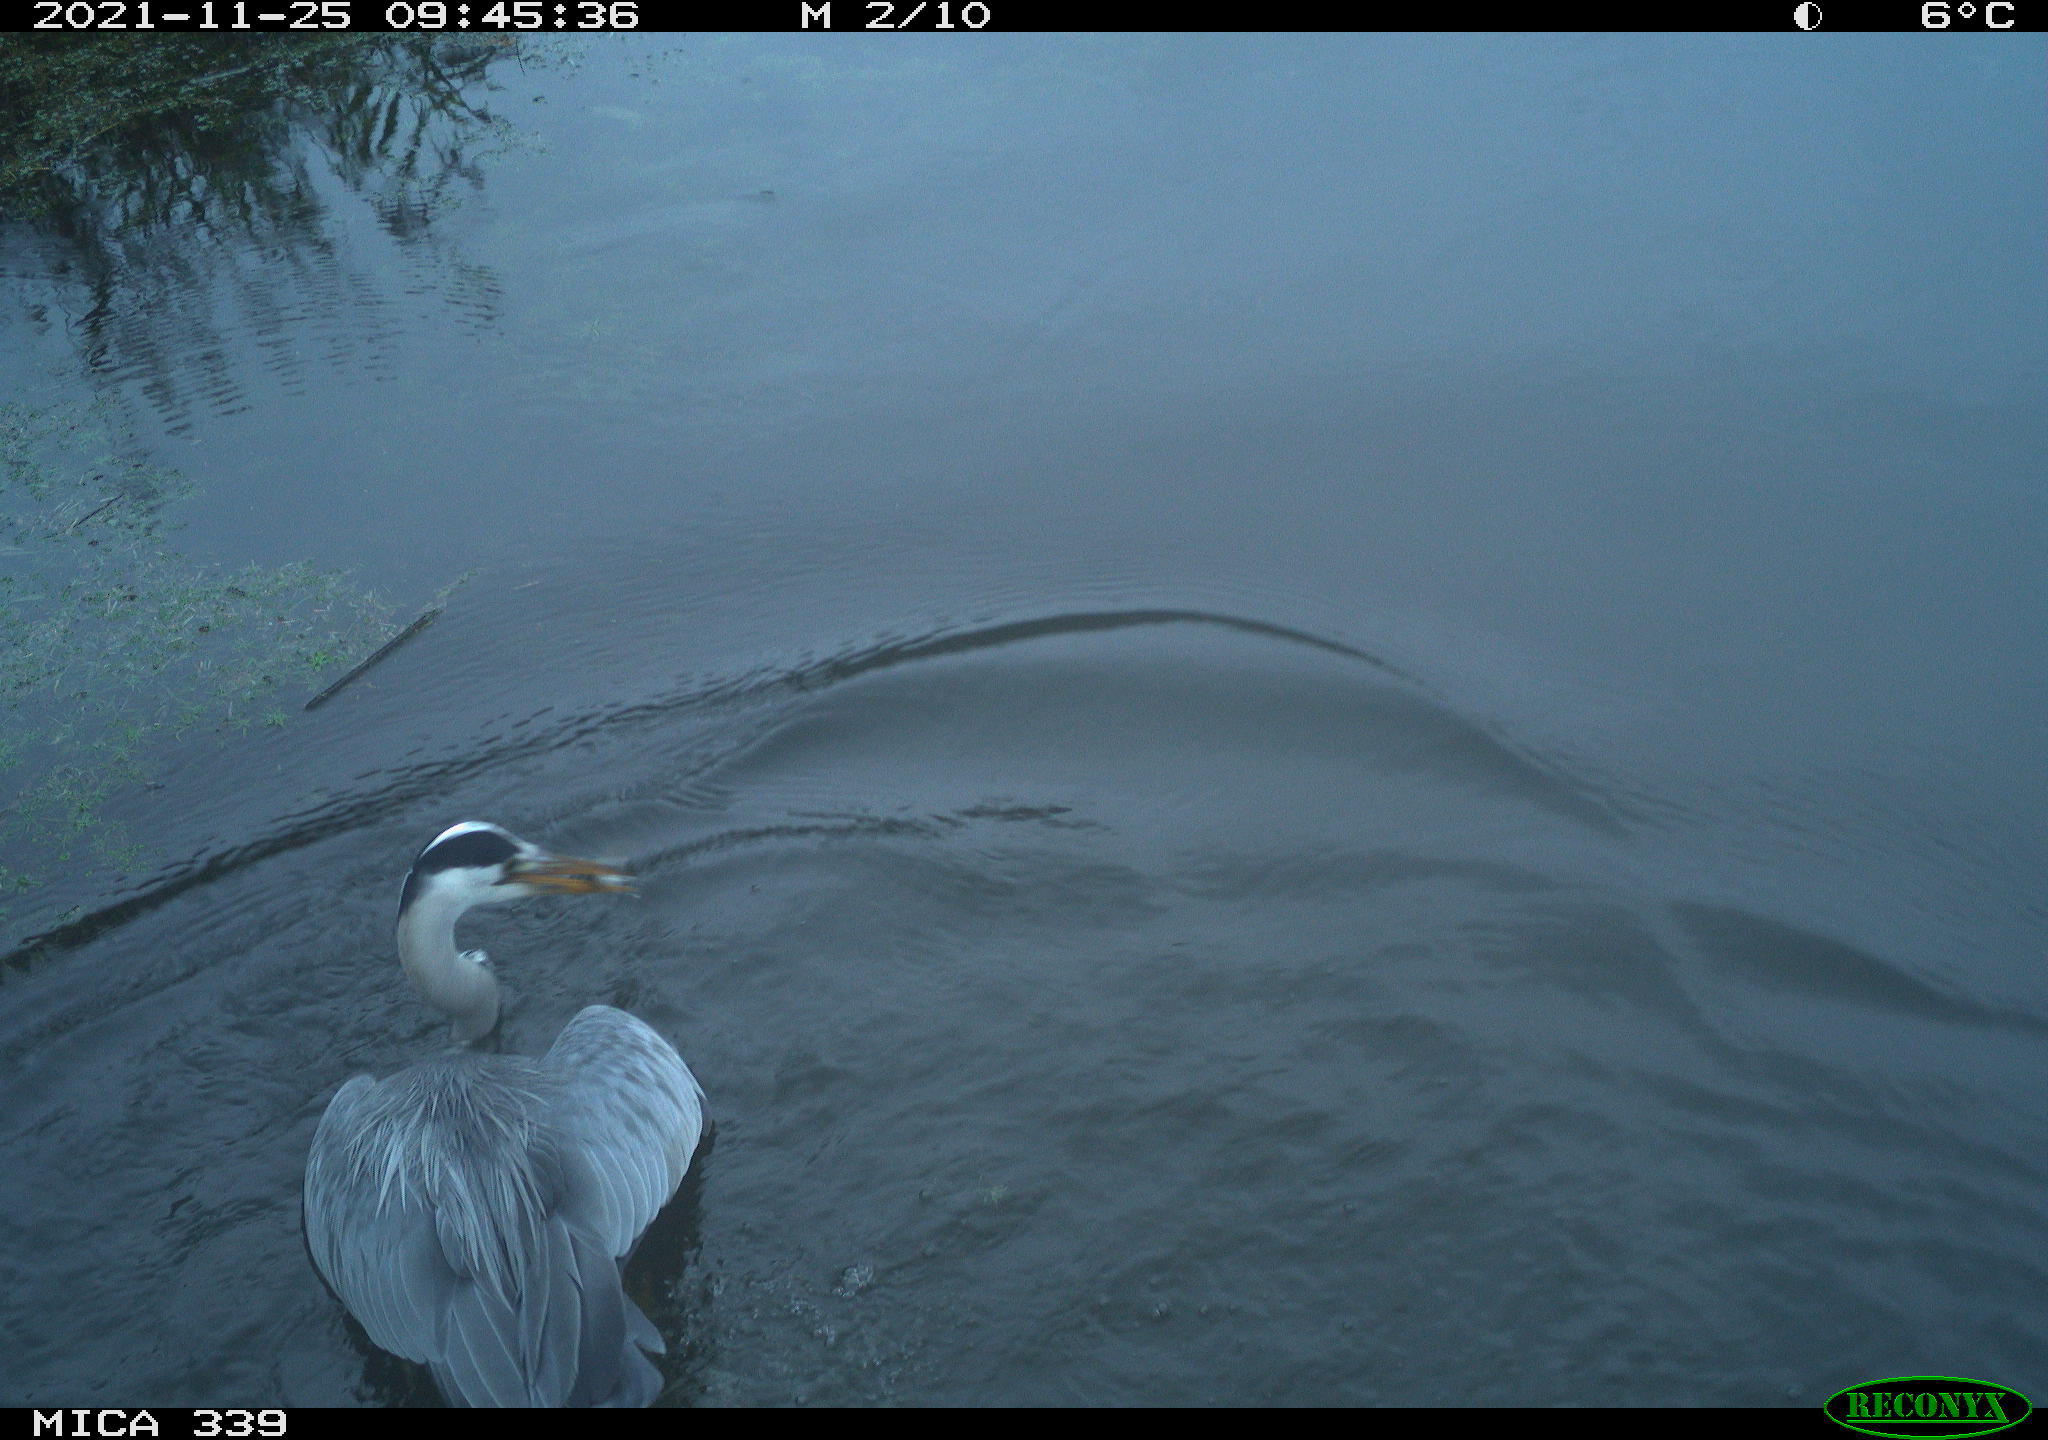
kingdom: Animalia
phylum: Chordata
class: Aves
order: Pelecaniformes
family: Ardeidae
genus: Ardea
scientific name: Ardea cinerea
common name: Grey heron
